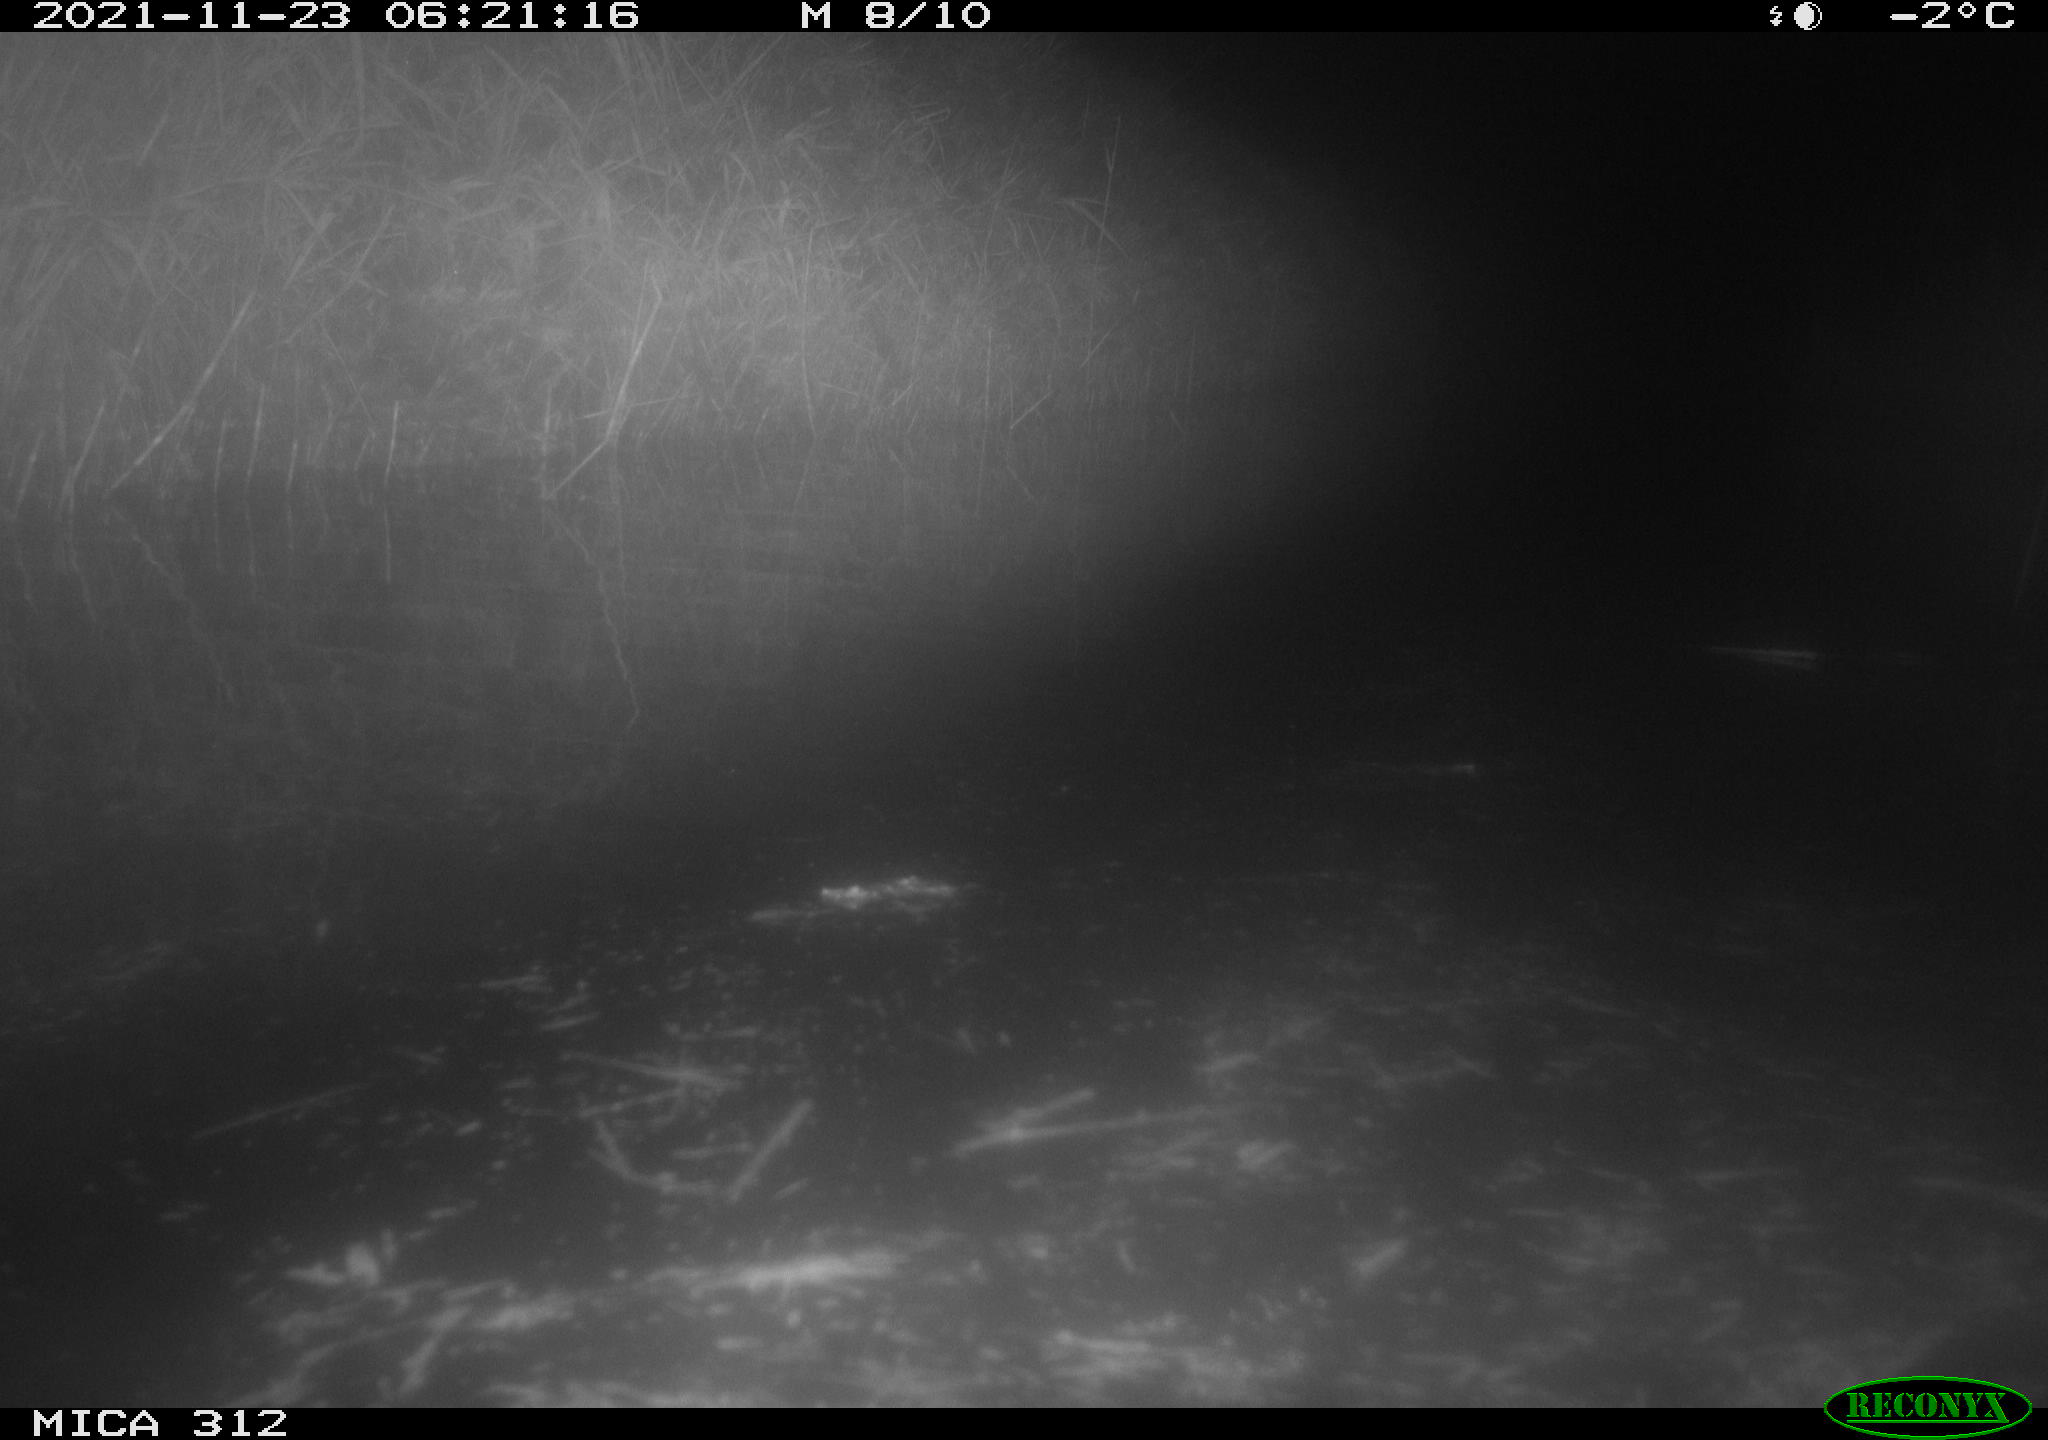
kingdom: Animalia
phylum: Chordata
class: Mammalia
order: Rodentia
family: Muridae
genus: Rattus
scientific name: Rattus norvegicus
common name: Brown rat
